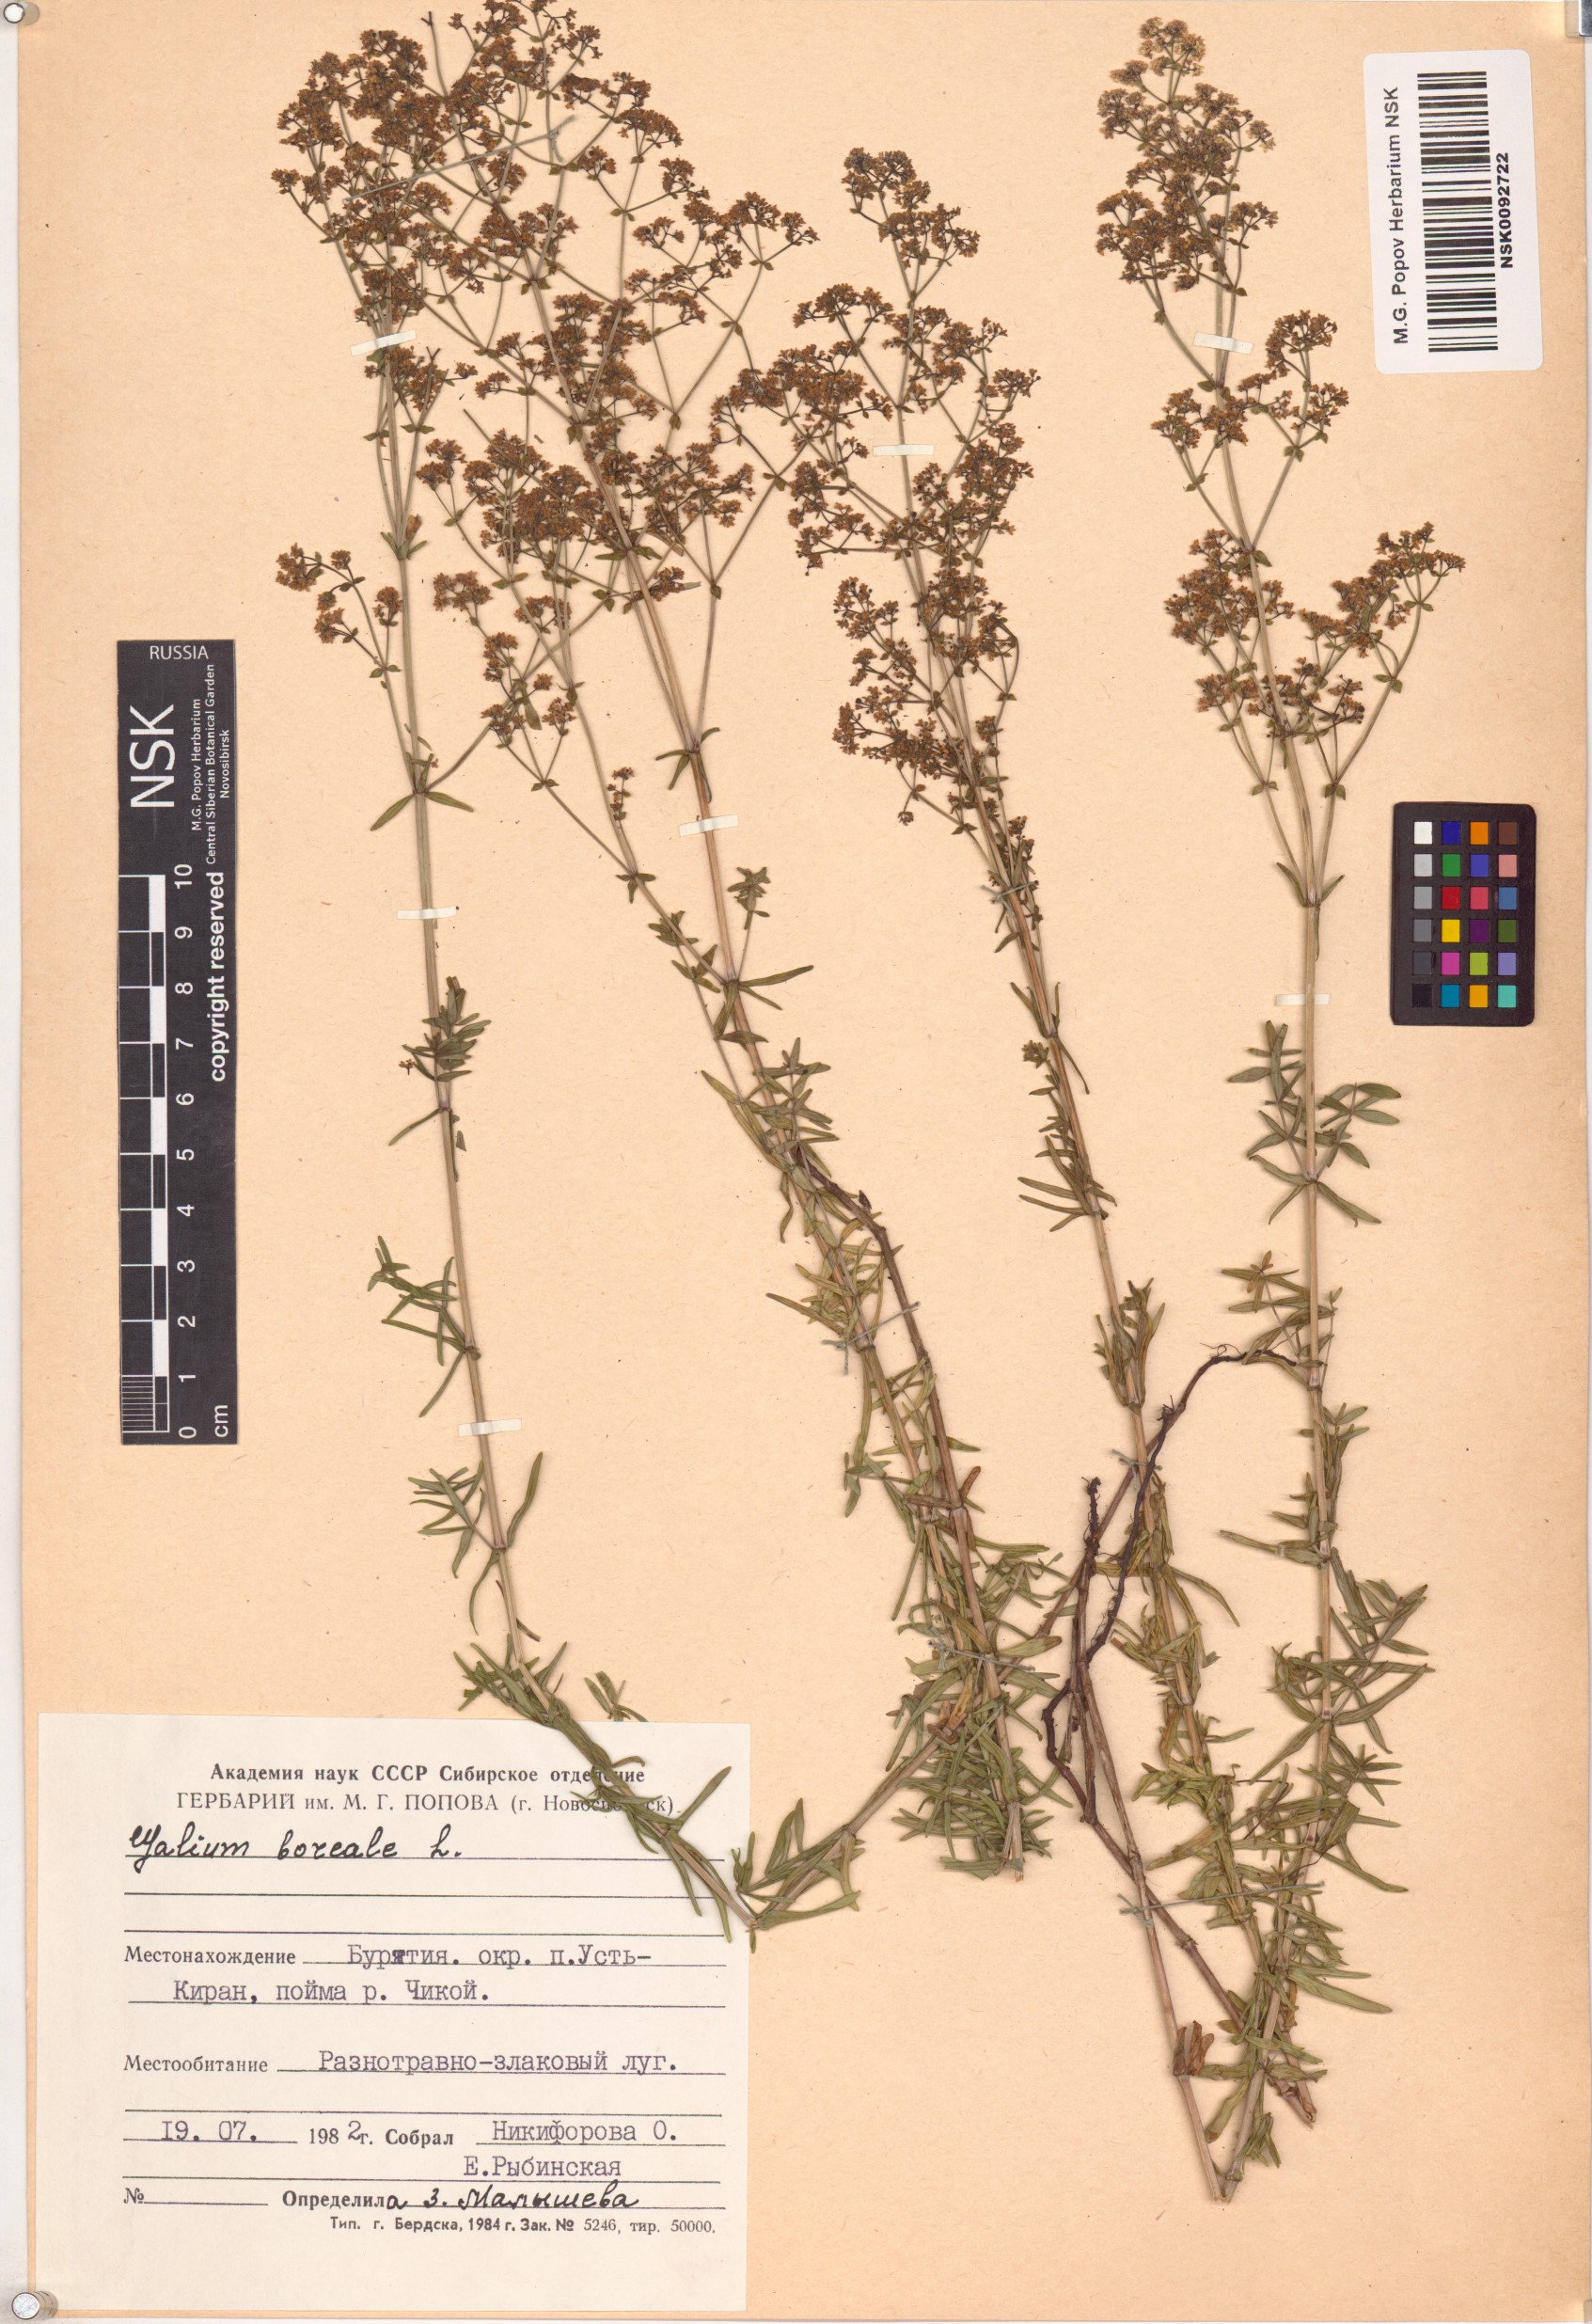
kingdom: Plantae
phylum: Tracheophyta
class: Magnoliopsida
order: Gentianales
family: Rubiaceae
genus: Galium
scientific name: Galium boreale
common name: Northern bedstraw
